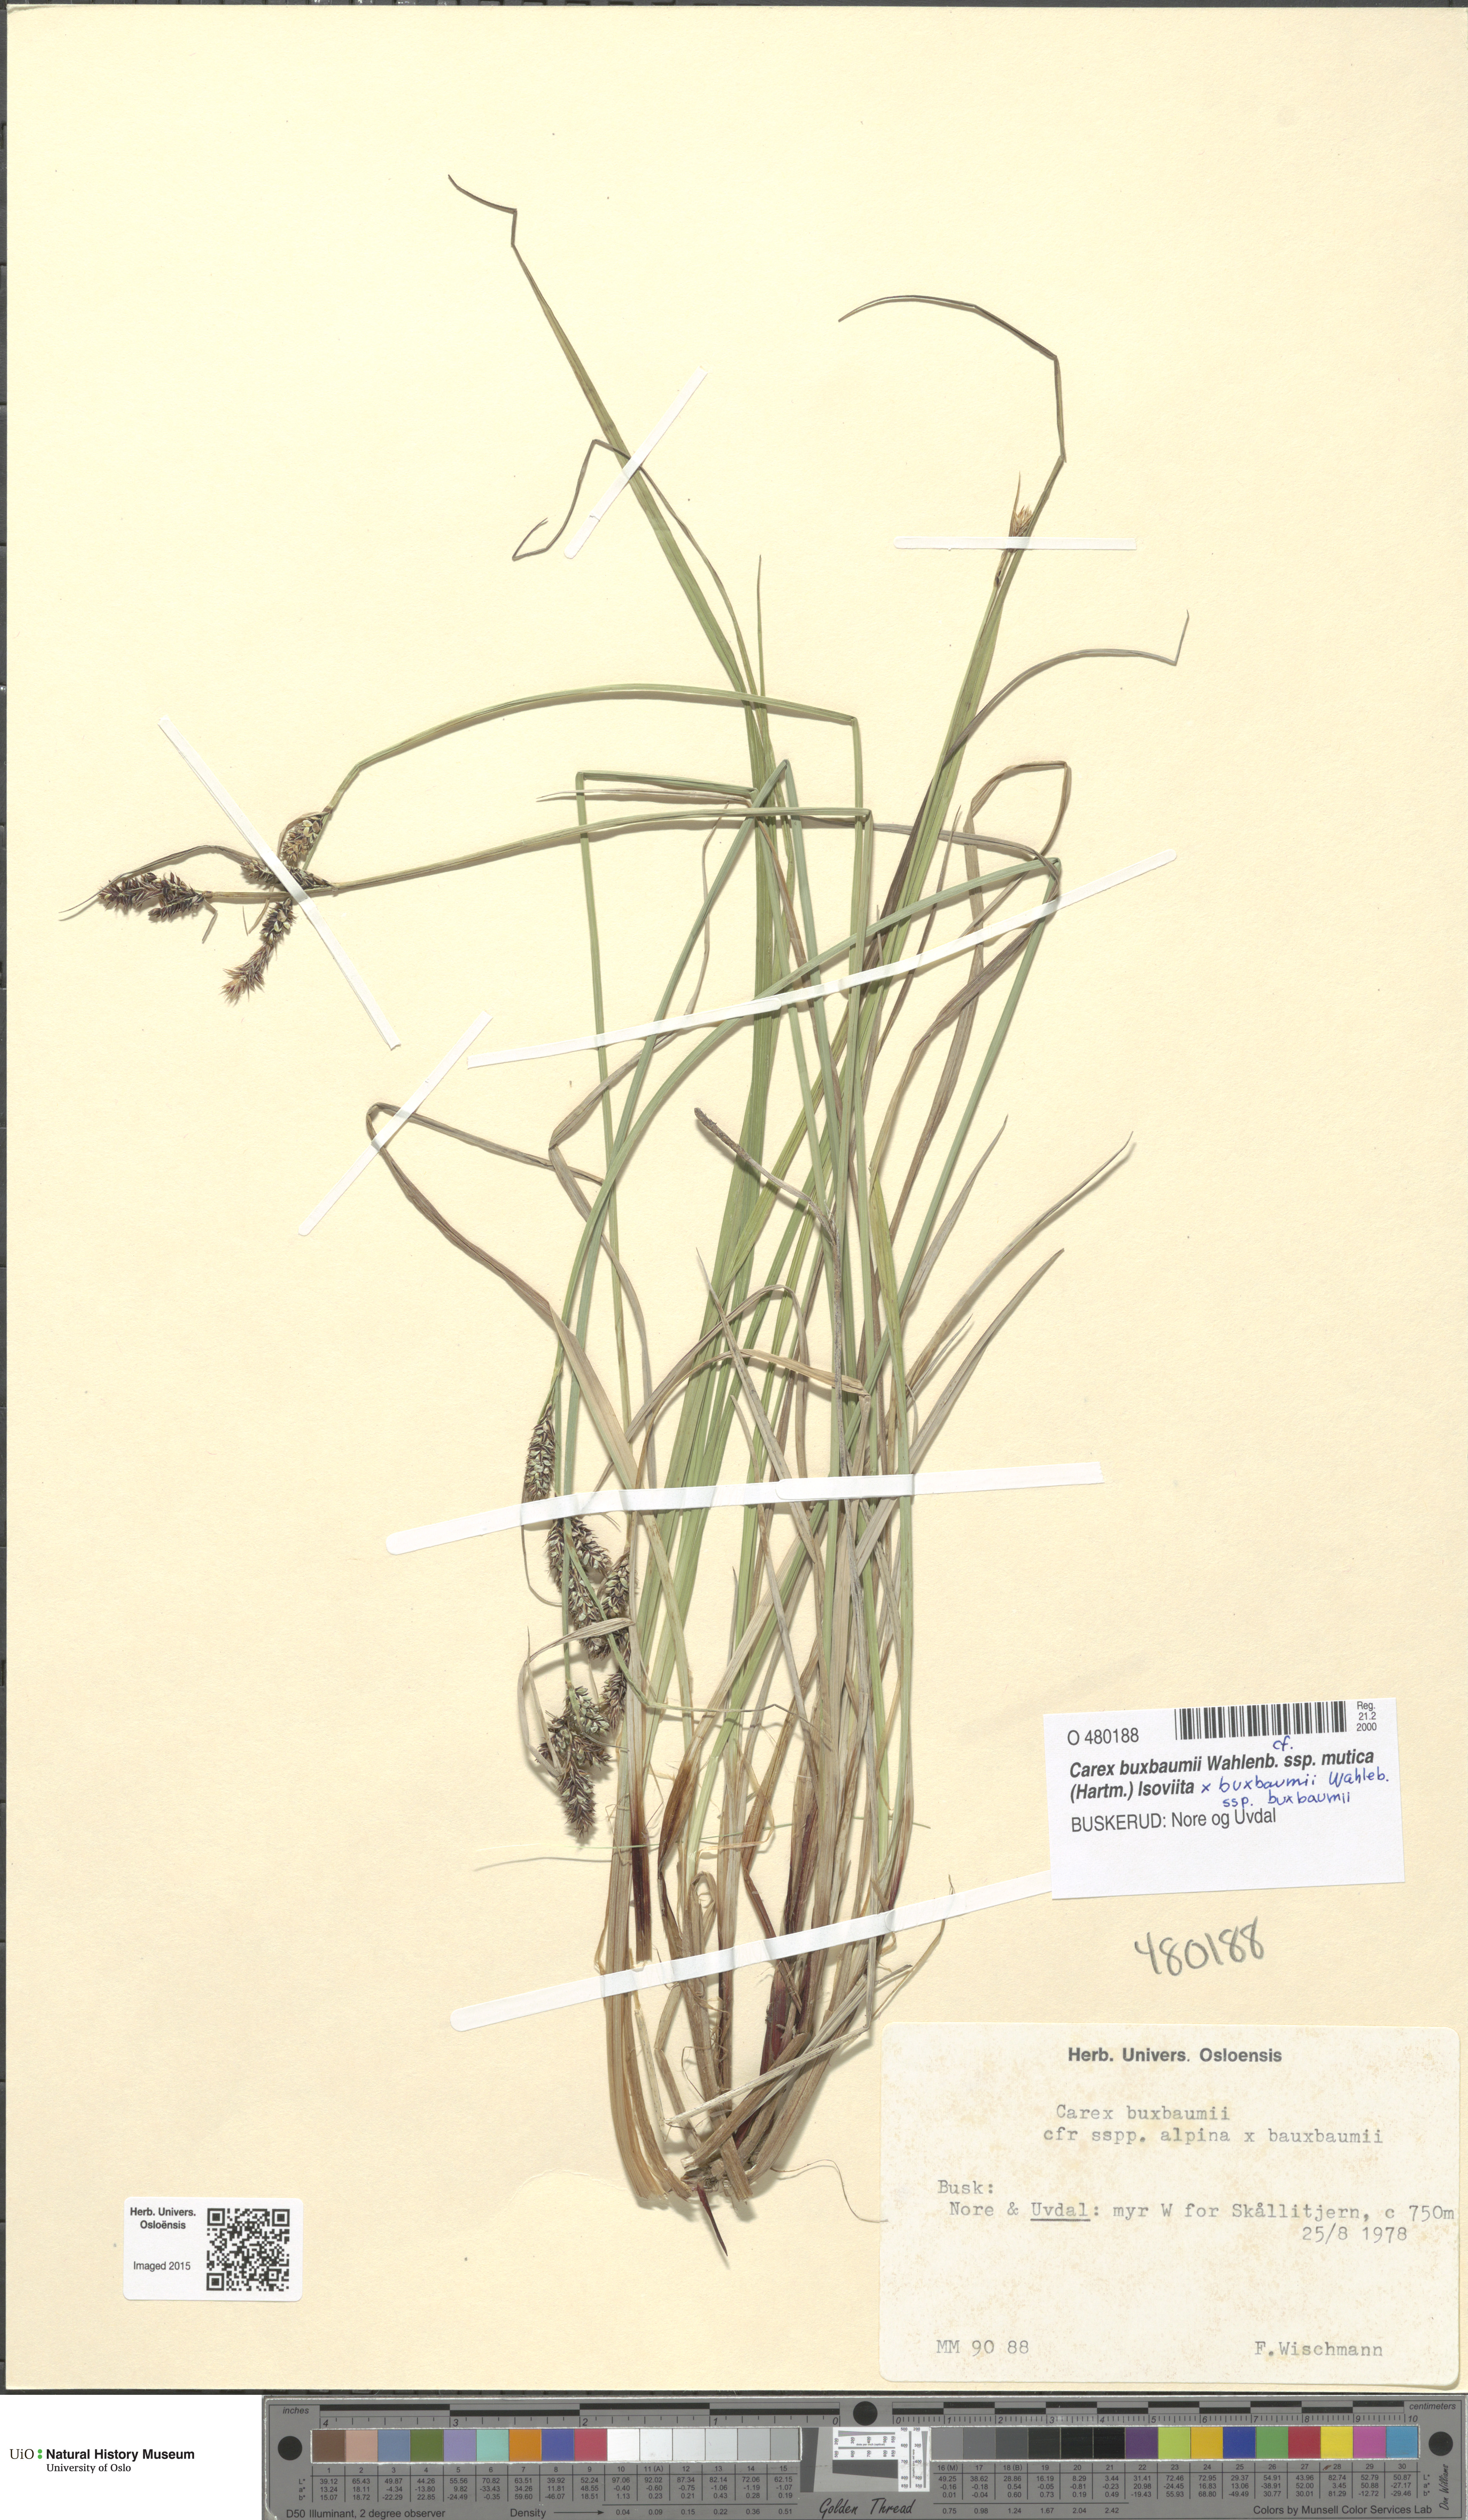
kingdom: Plantae
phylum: Tracheophyta
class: Liliopsida
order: Poales
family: Cyperaceae
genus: Carex
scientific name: Carex
